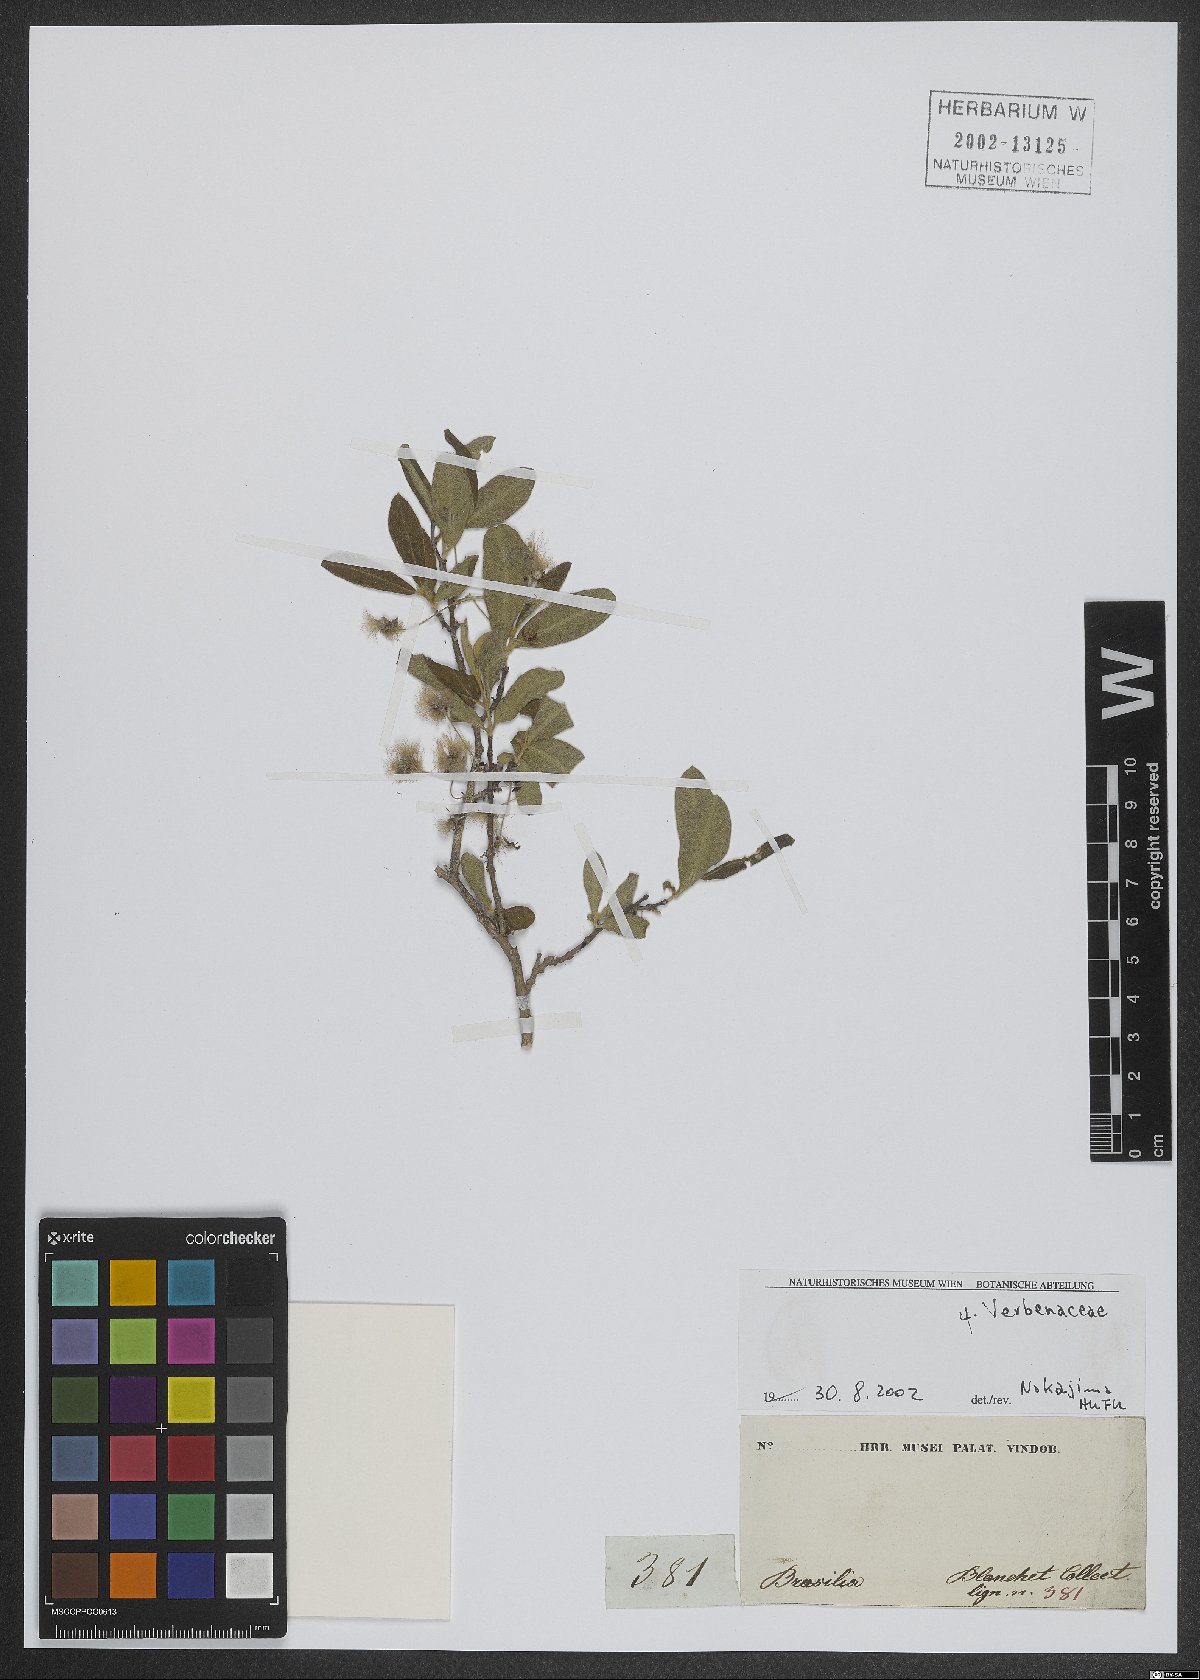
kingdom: Plantae
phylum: Tracheophyta
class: Magnoliopsida
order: Lamiales
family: Verbenaceae
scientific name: Verbenaceae
